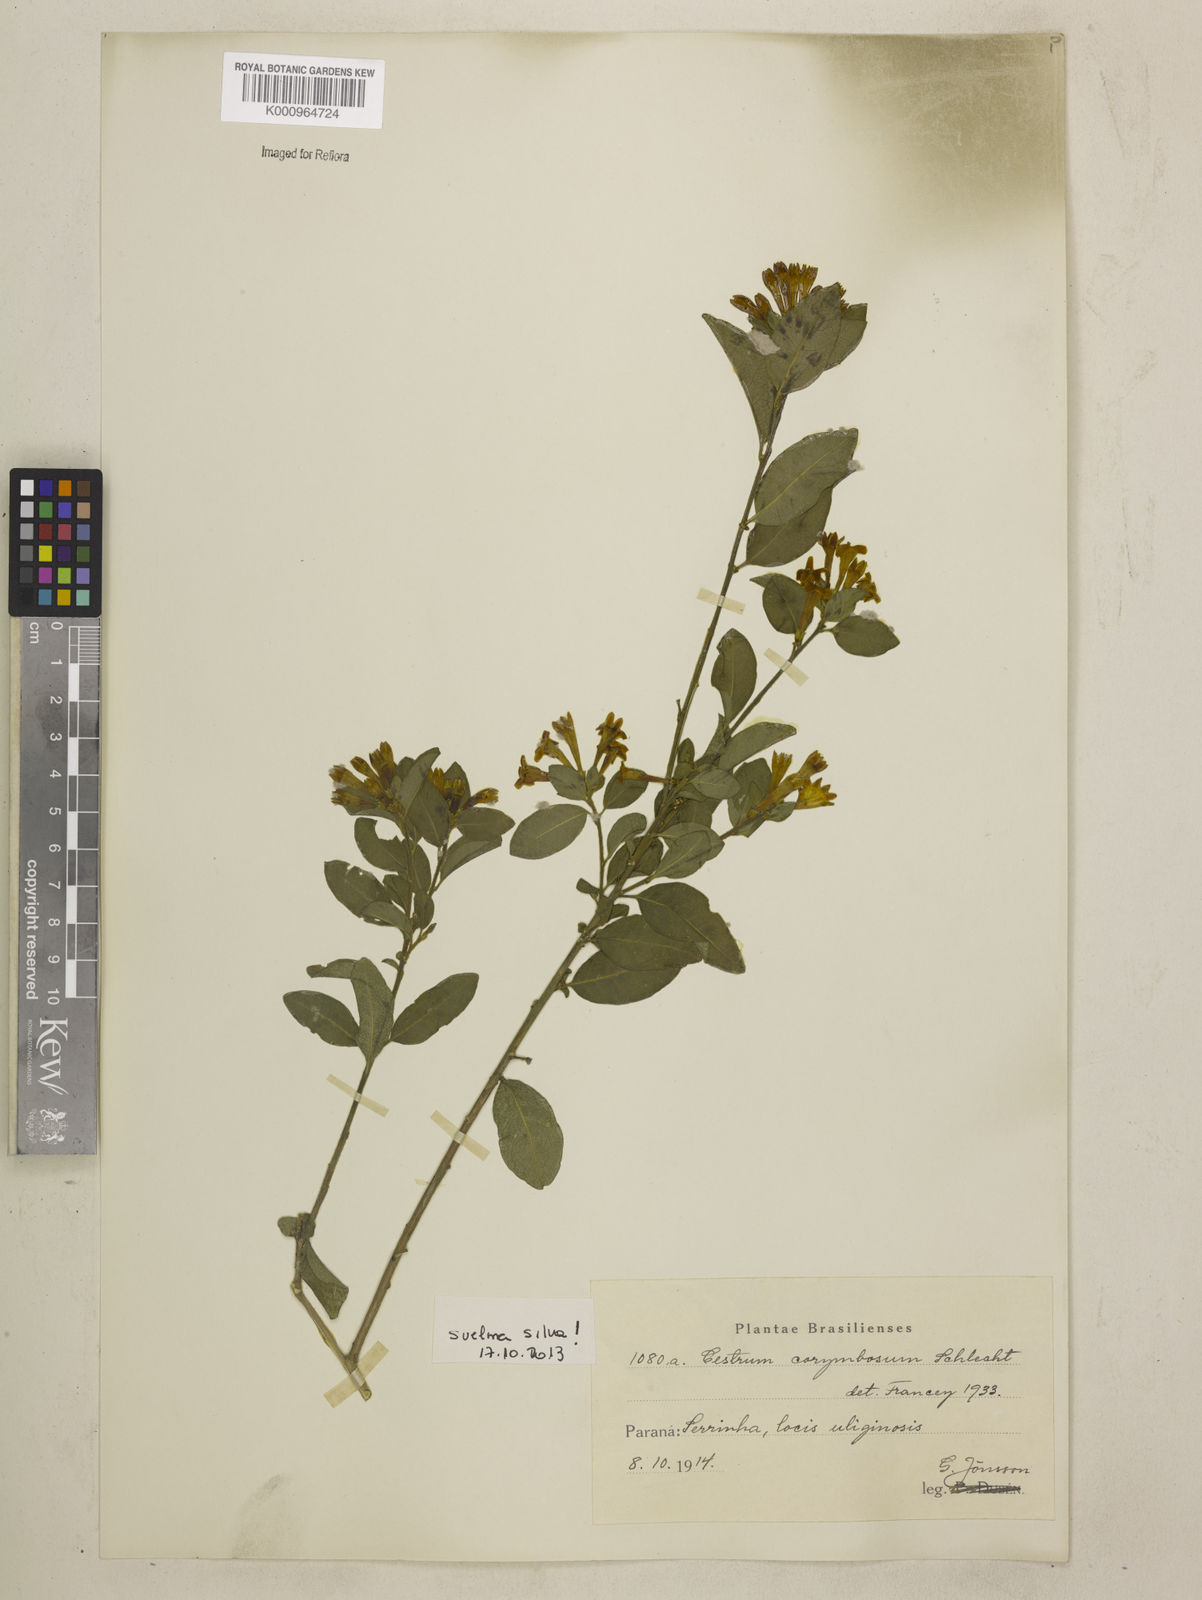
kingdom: Plantae
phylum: Tracheophyta
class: Magnoliopsida
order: Solanales
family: Solanaceae
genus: Cestrum
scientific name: Cestrum corymbosum
